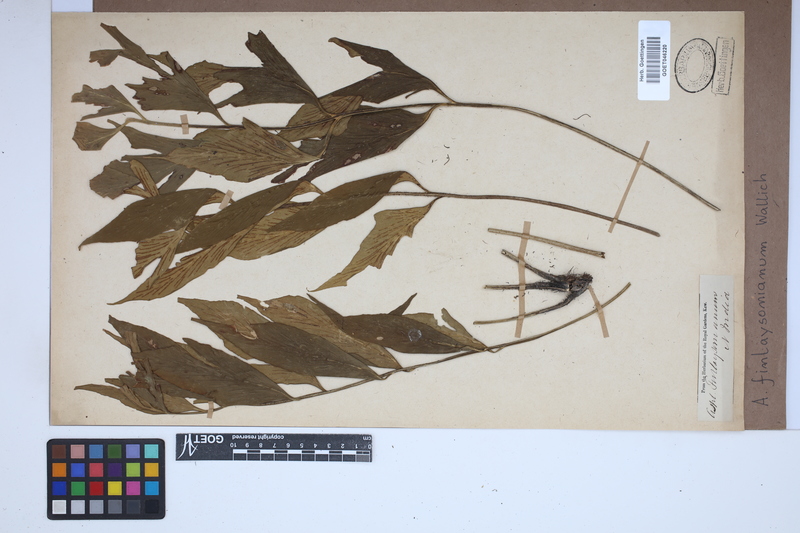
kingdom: Plantae
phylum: Tracheophyta
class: Polypodiopsida
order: Polypodiales
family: Aspleniaceae
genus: Asplenium
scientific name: Asplenium simile
